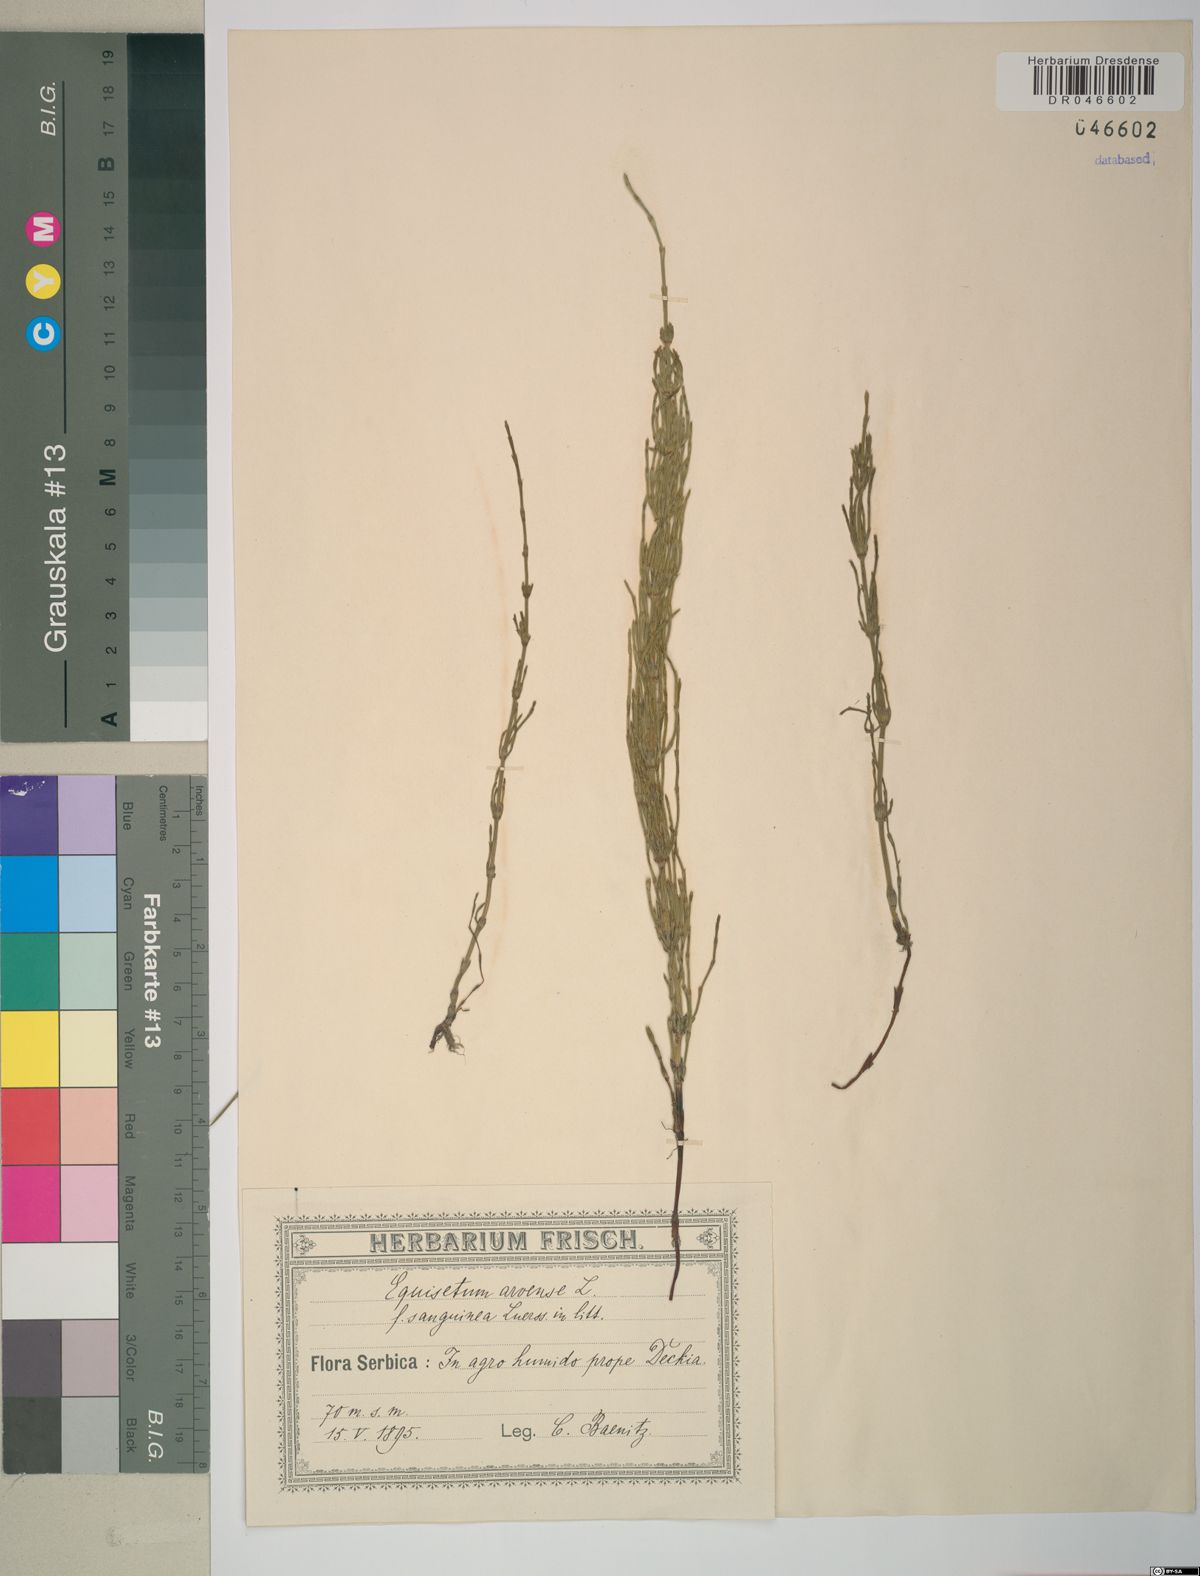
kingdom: Plantae
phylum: Tracheophyta
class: Polypodiopsida
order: Equisetales
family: Equisetaceae
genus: Equisetum
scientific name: Equisetum arvense
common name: Field horsetail
